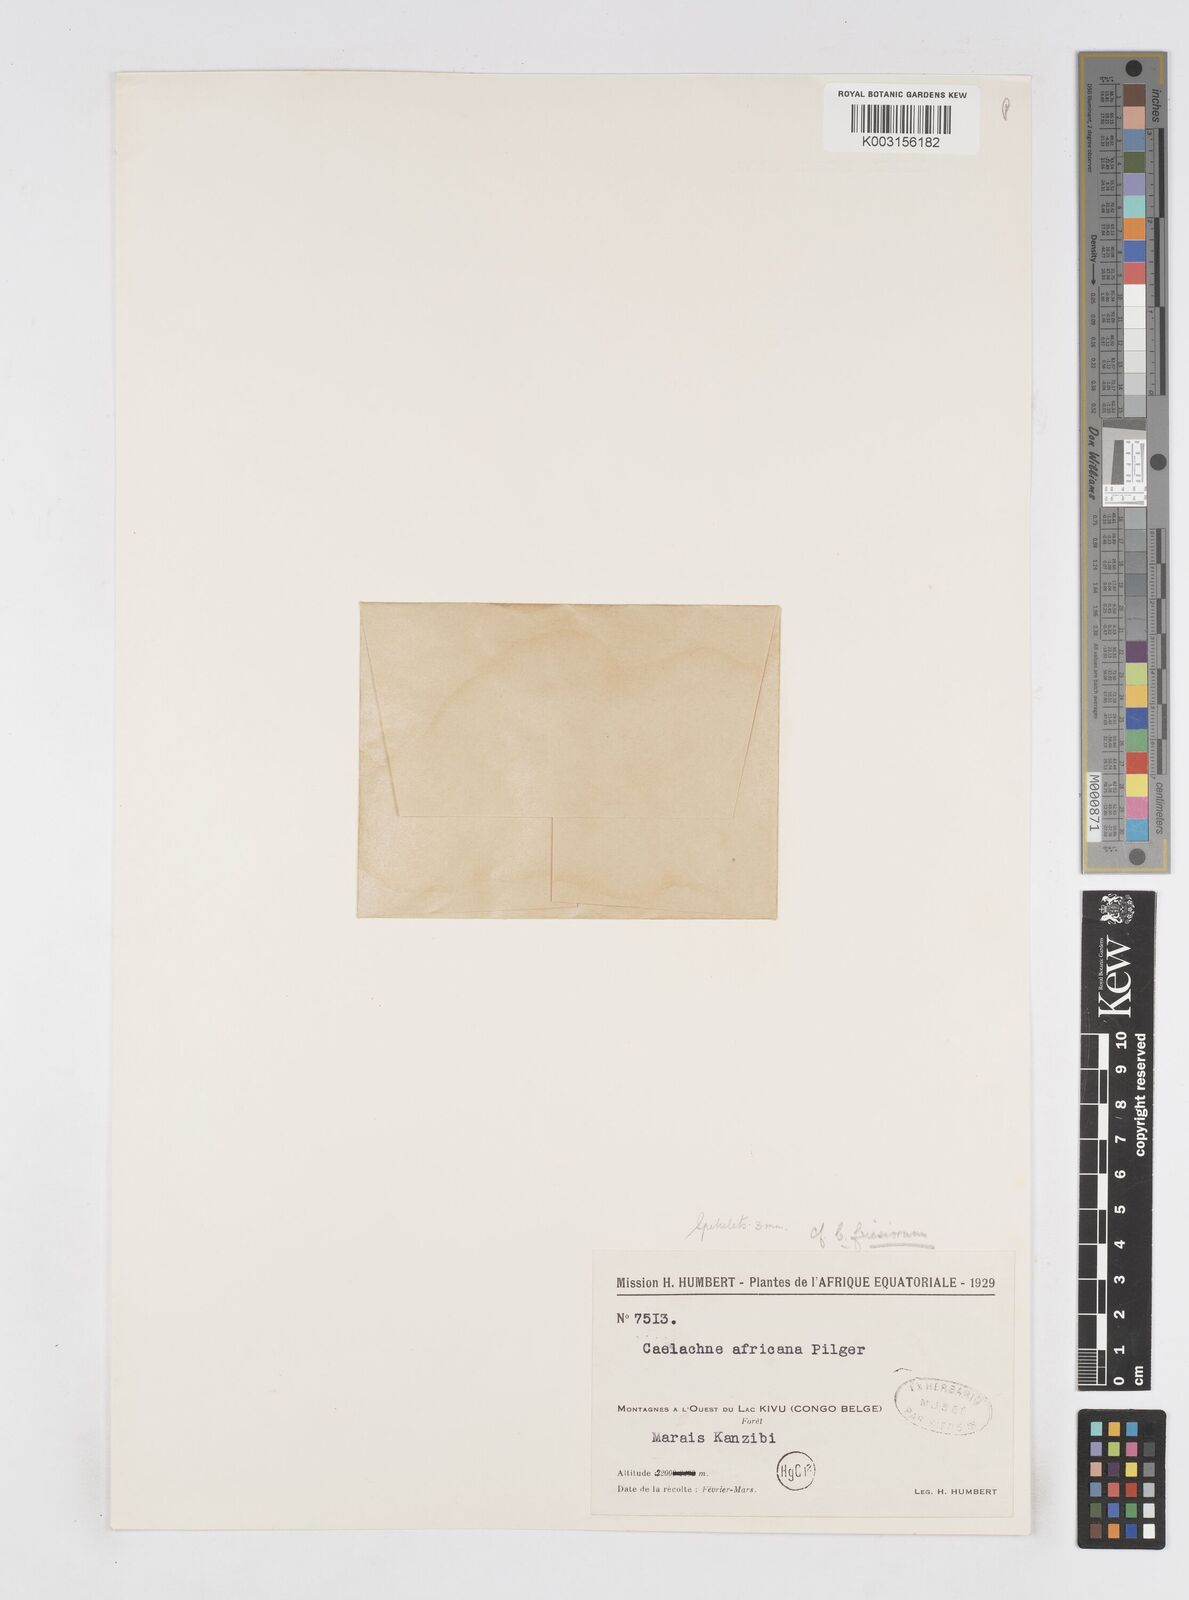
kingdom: Plantae
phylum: Tracheophyta
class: Liliopsida
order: Poales
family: Poaceae
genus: Coelachne
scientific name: Coelachne africana
